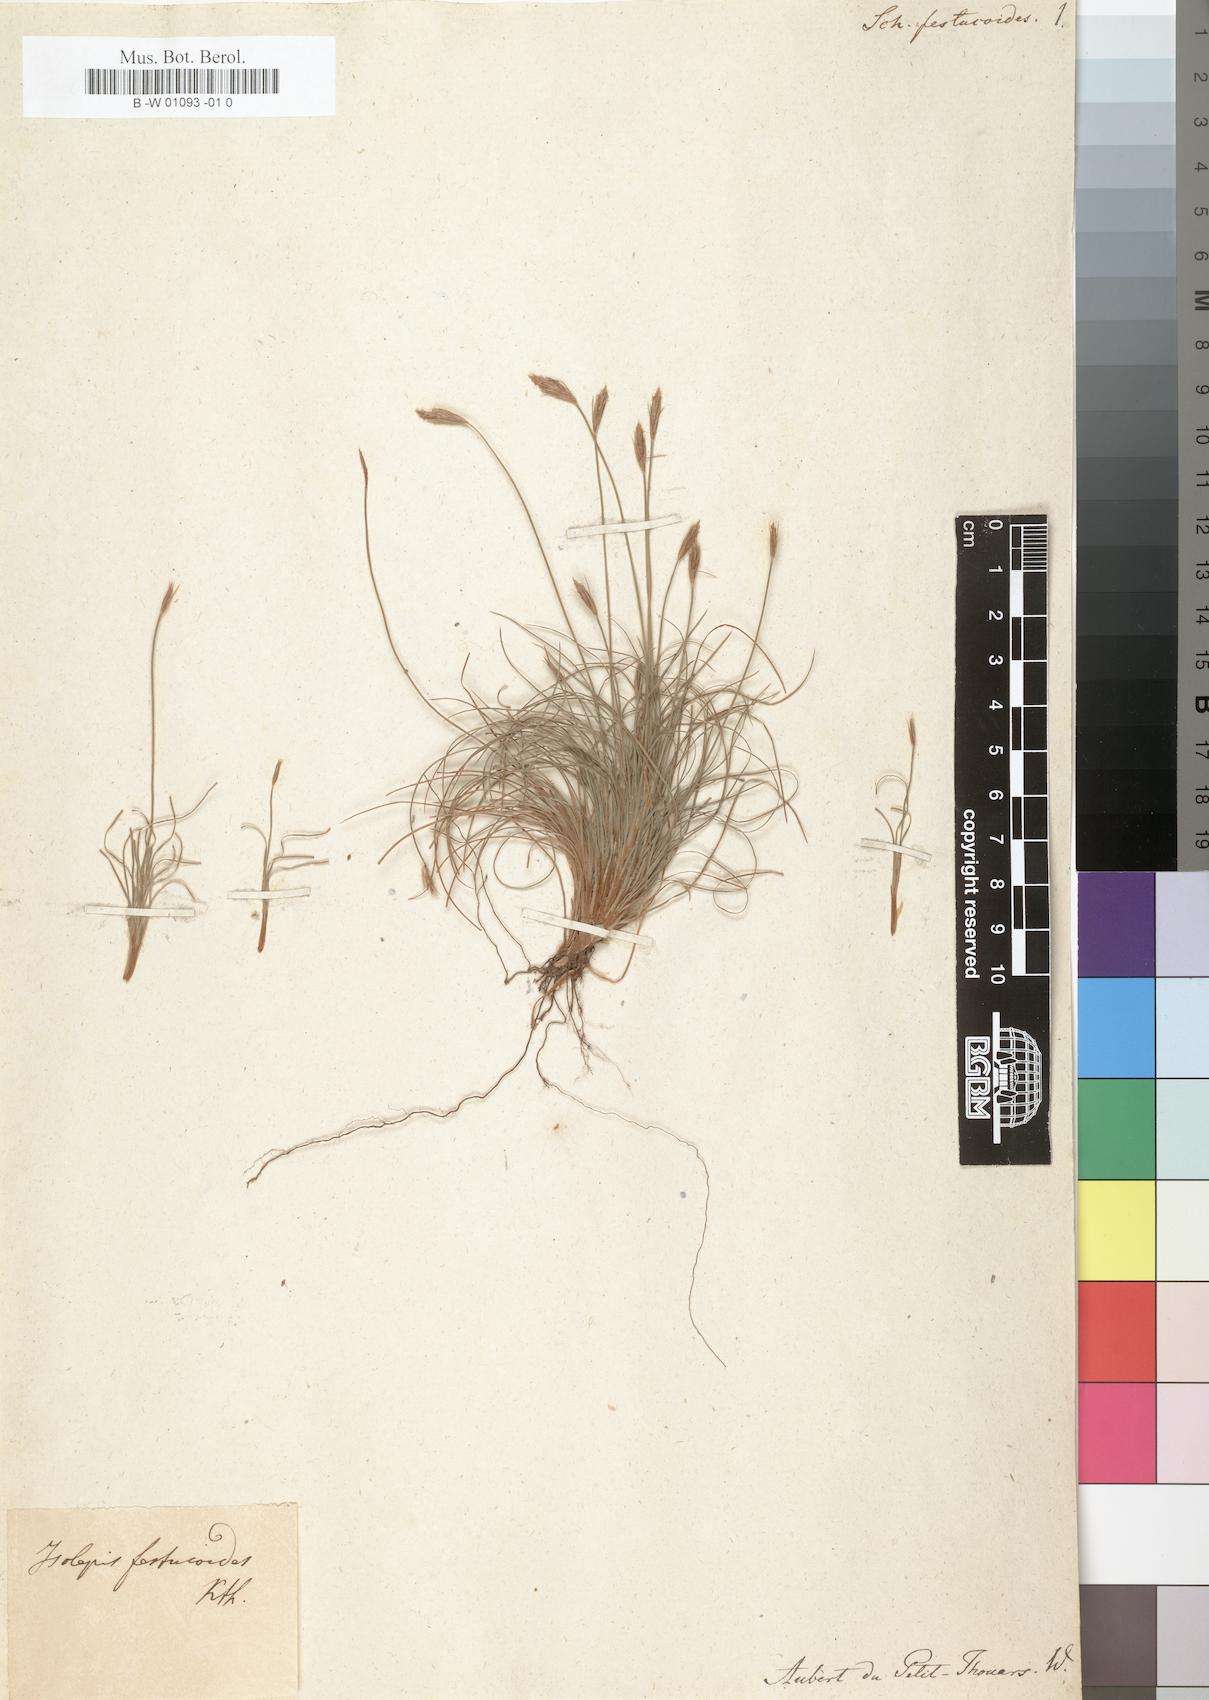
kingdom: Plantae
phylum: Tracheophyta
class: Liliopsida
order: Poales
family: Cyperaceae
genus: Bulbostylis
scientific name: Bulbostylis festucoides
